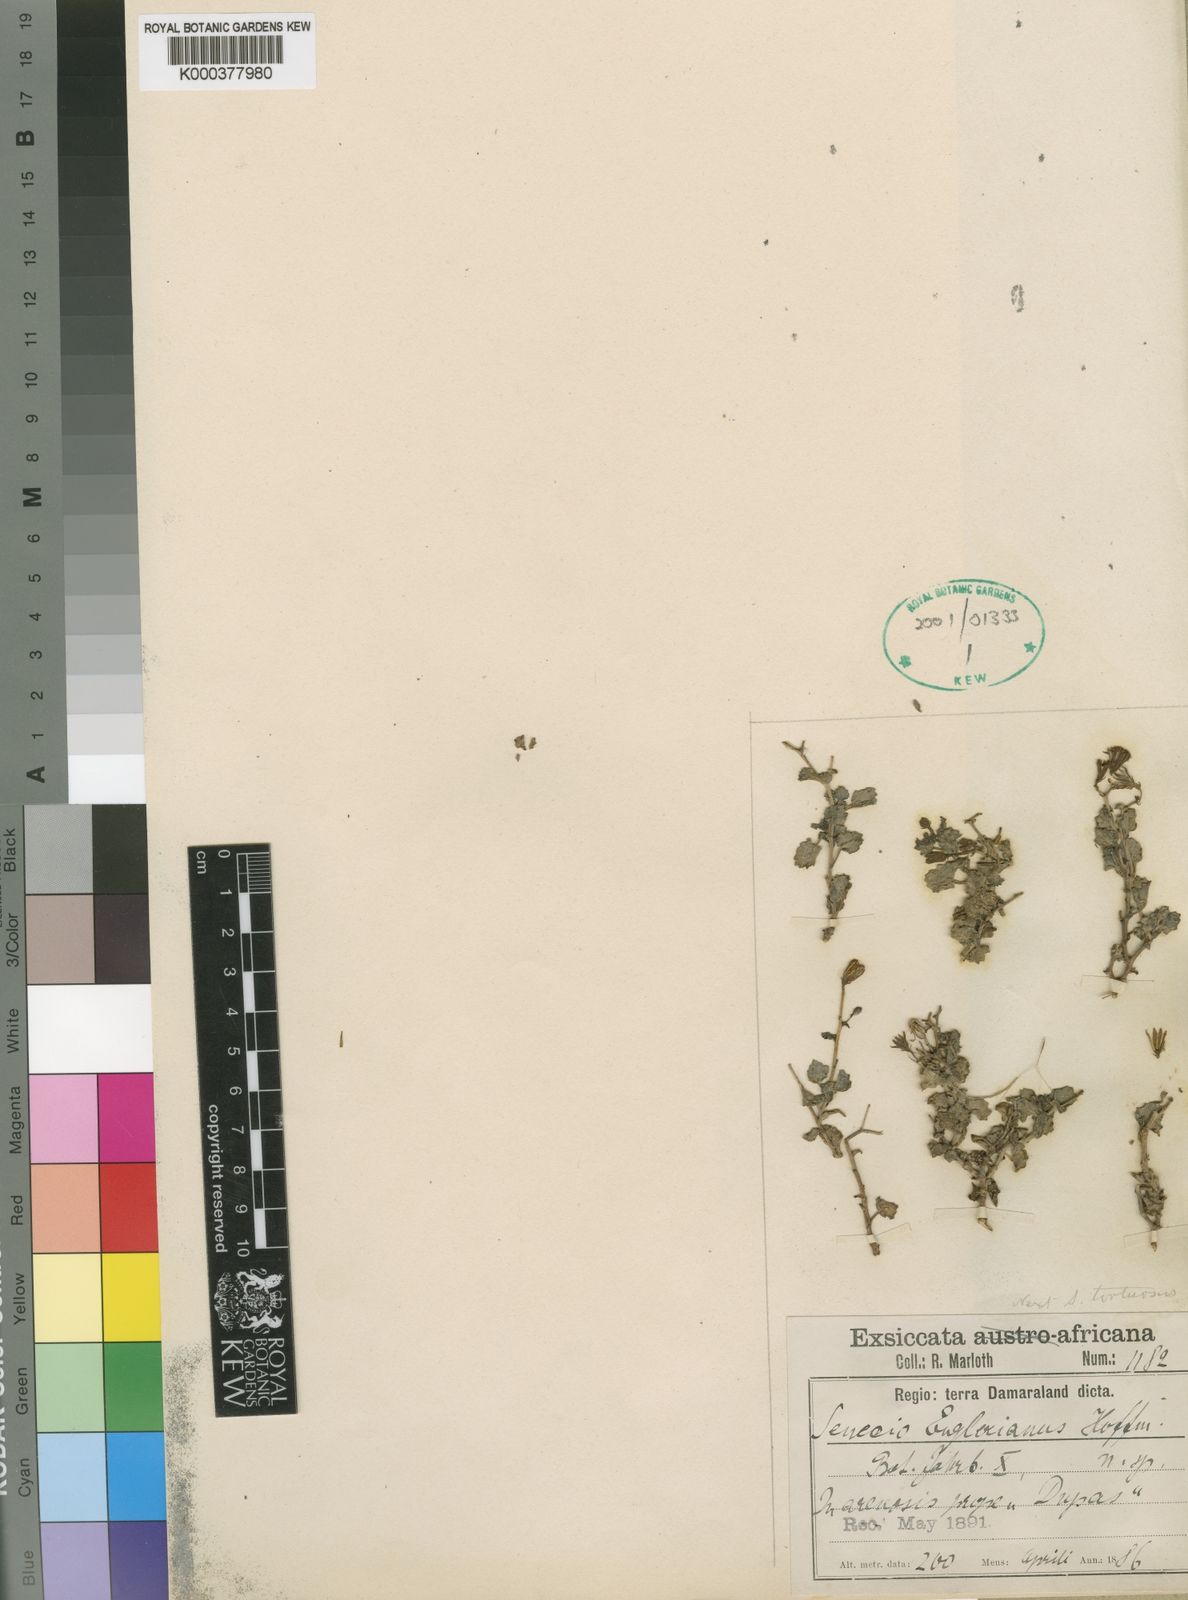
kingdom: Plantae
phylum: Tracheophyta
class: Magnoliopsida
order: Asterales
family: Asteraceae
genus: Senecio
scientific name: Senecio
